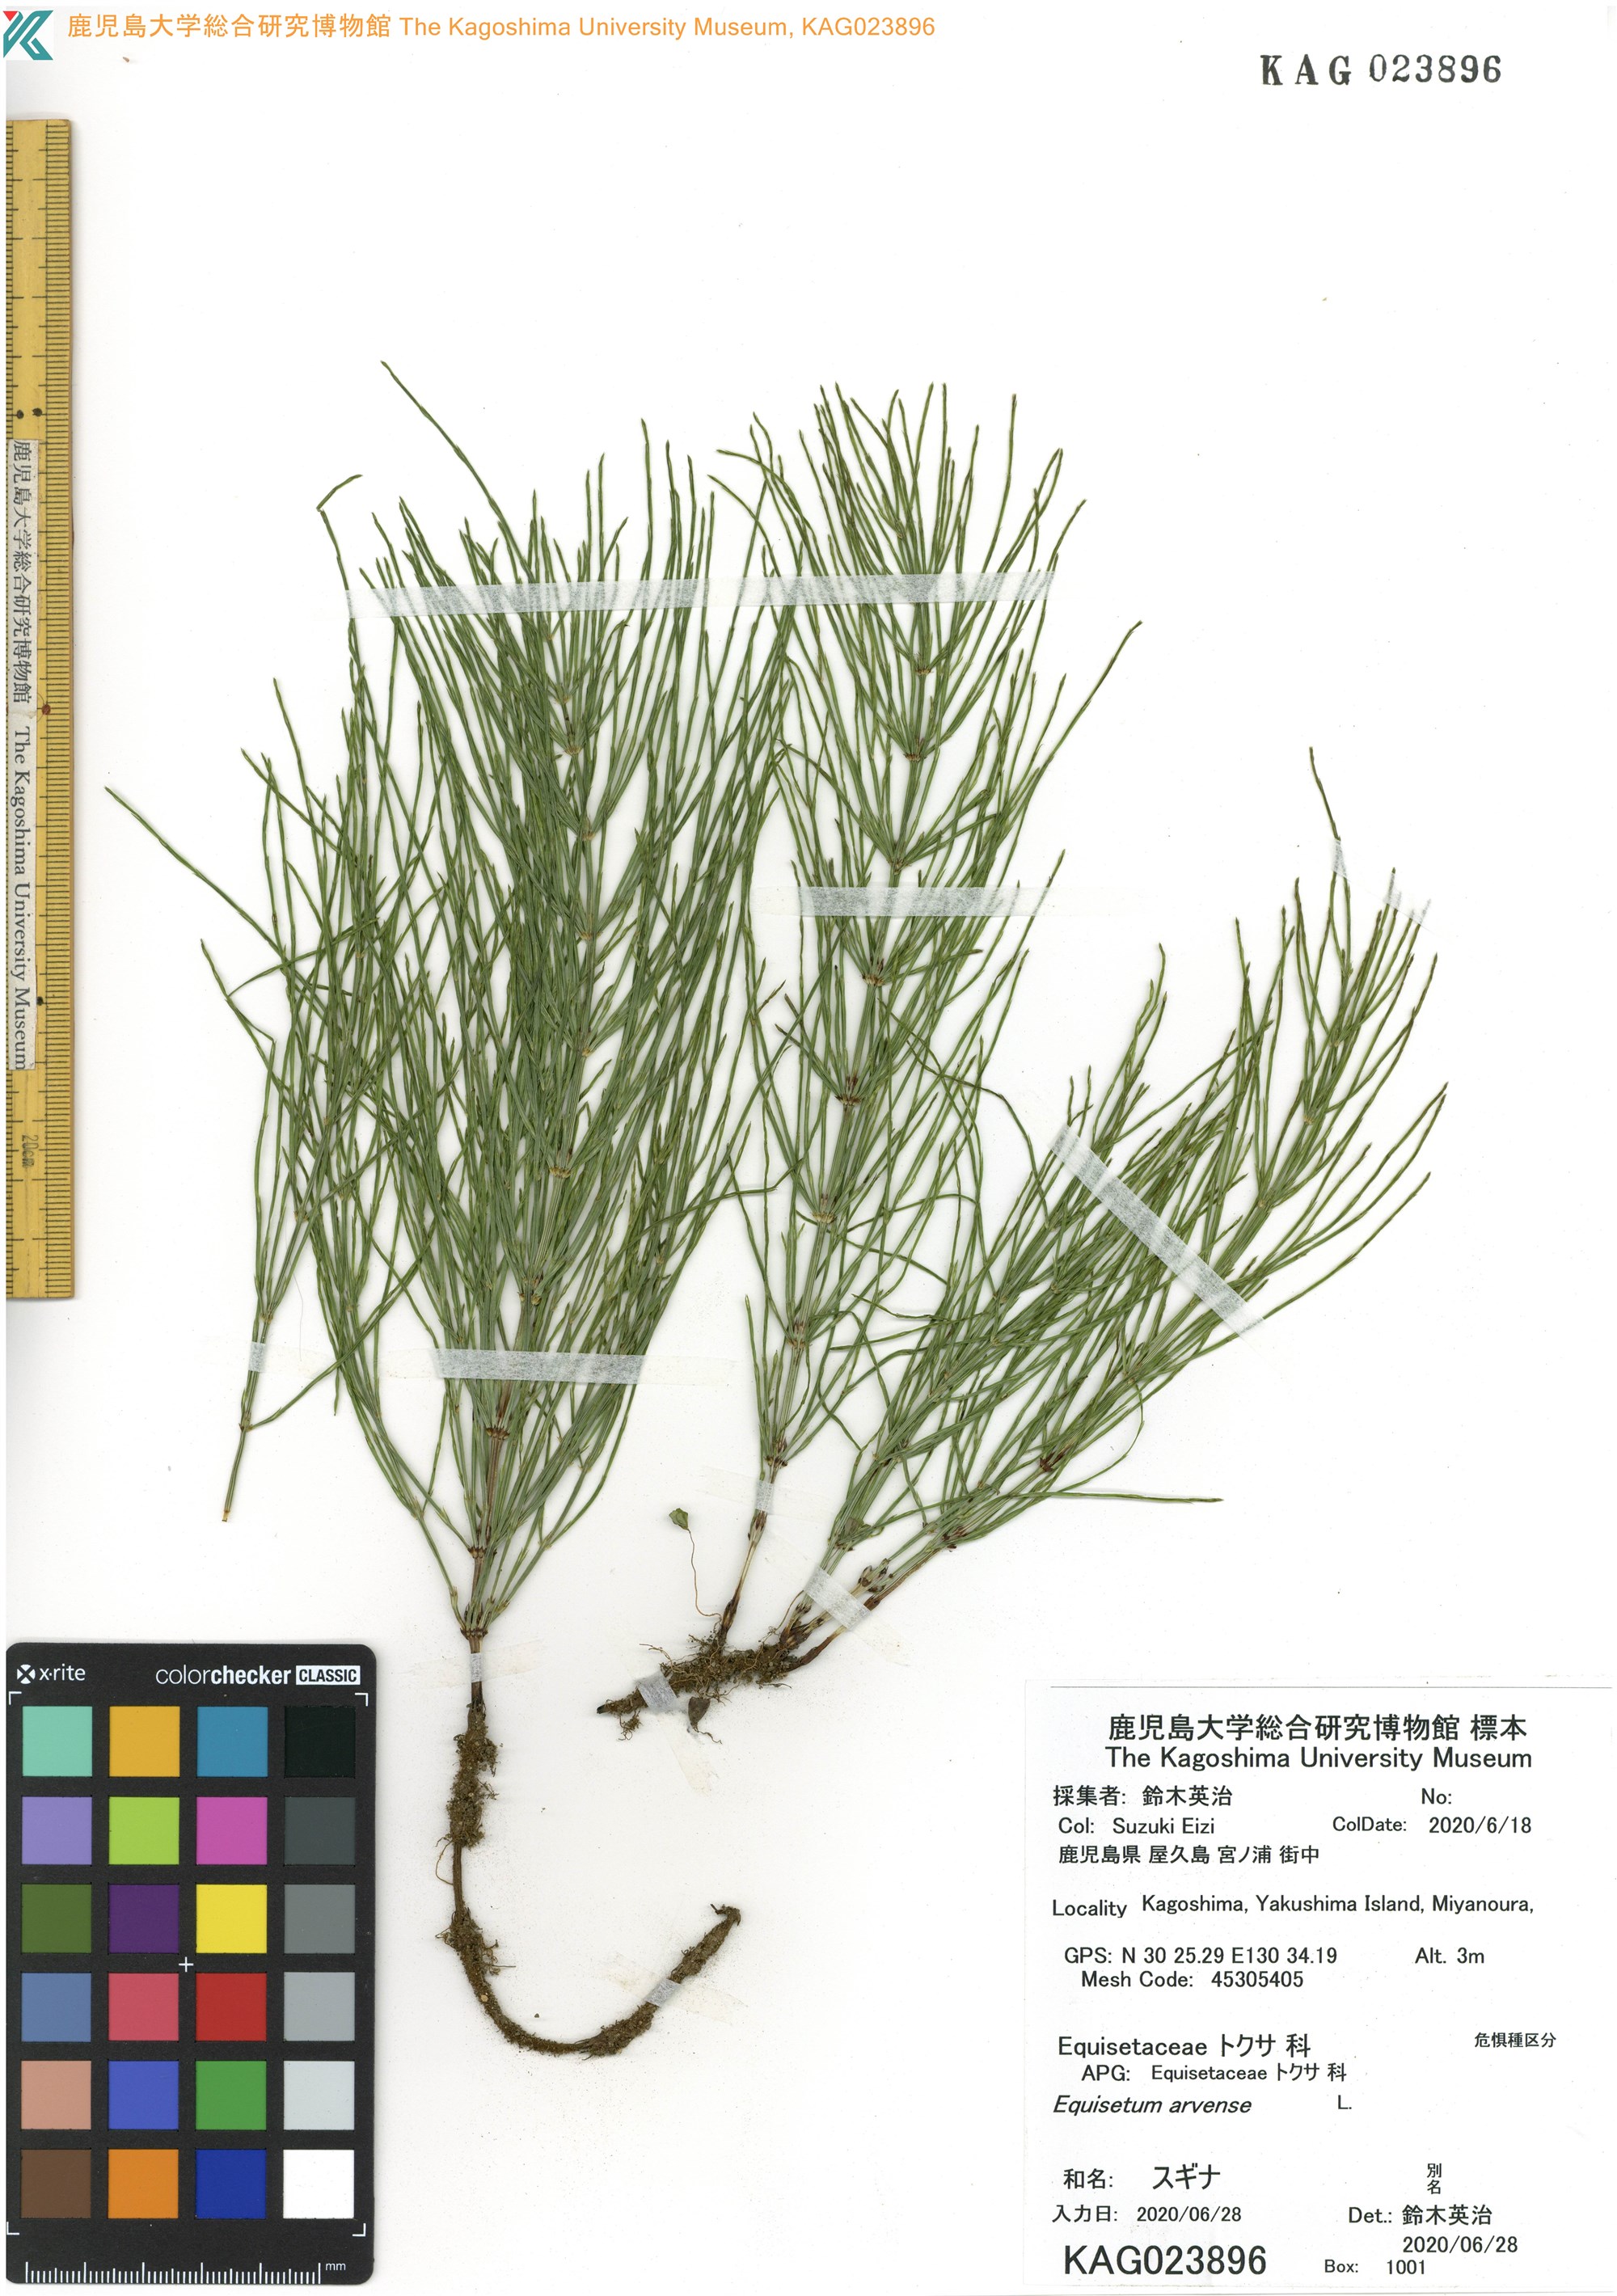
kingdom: Plantae
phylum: Tracheophyta
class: Polypodiopsida
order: Equisetales
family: Equisetaceae
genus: Equisetum
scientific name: Equisetum arvense
